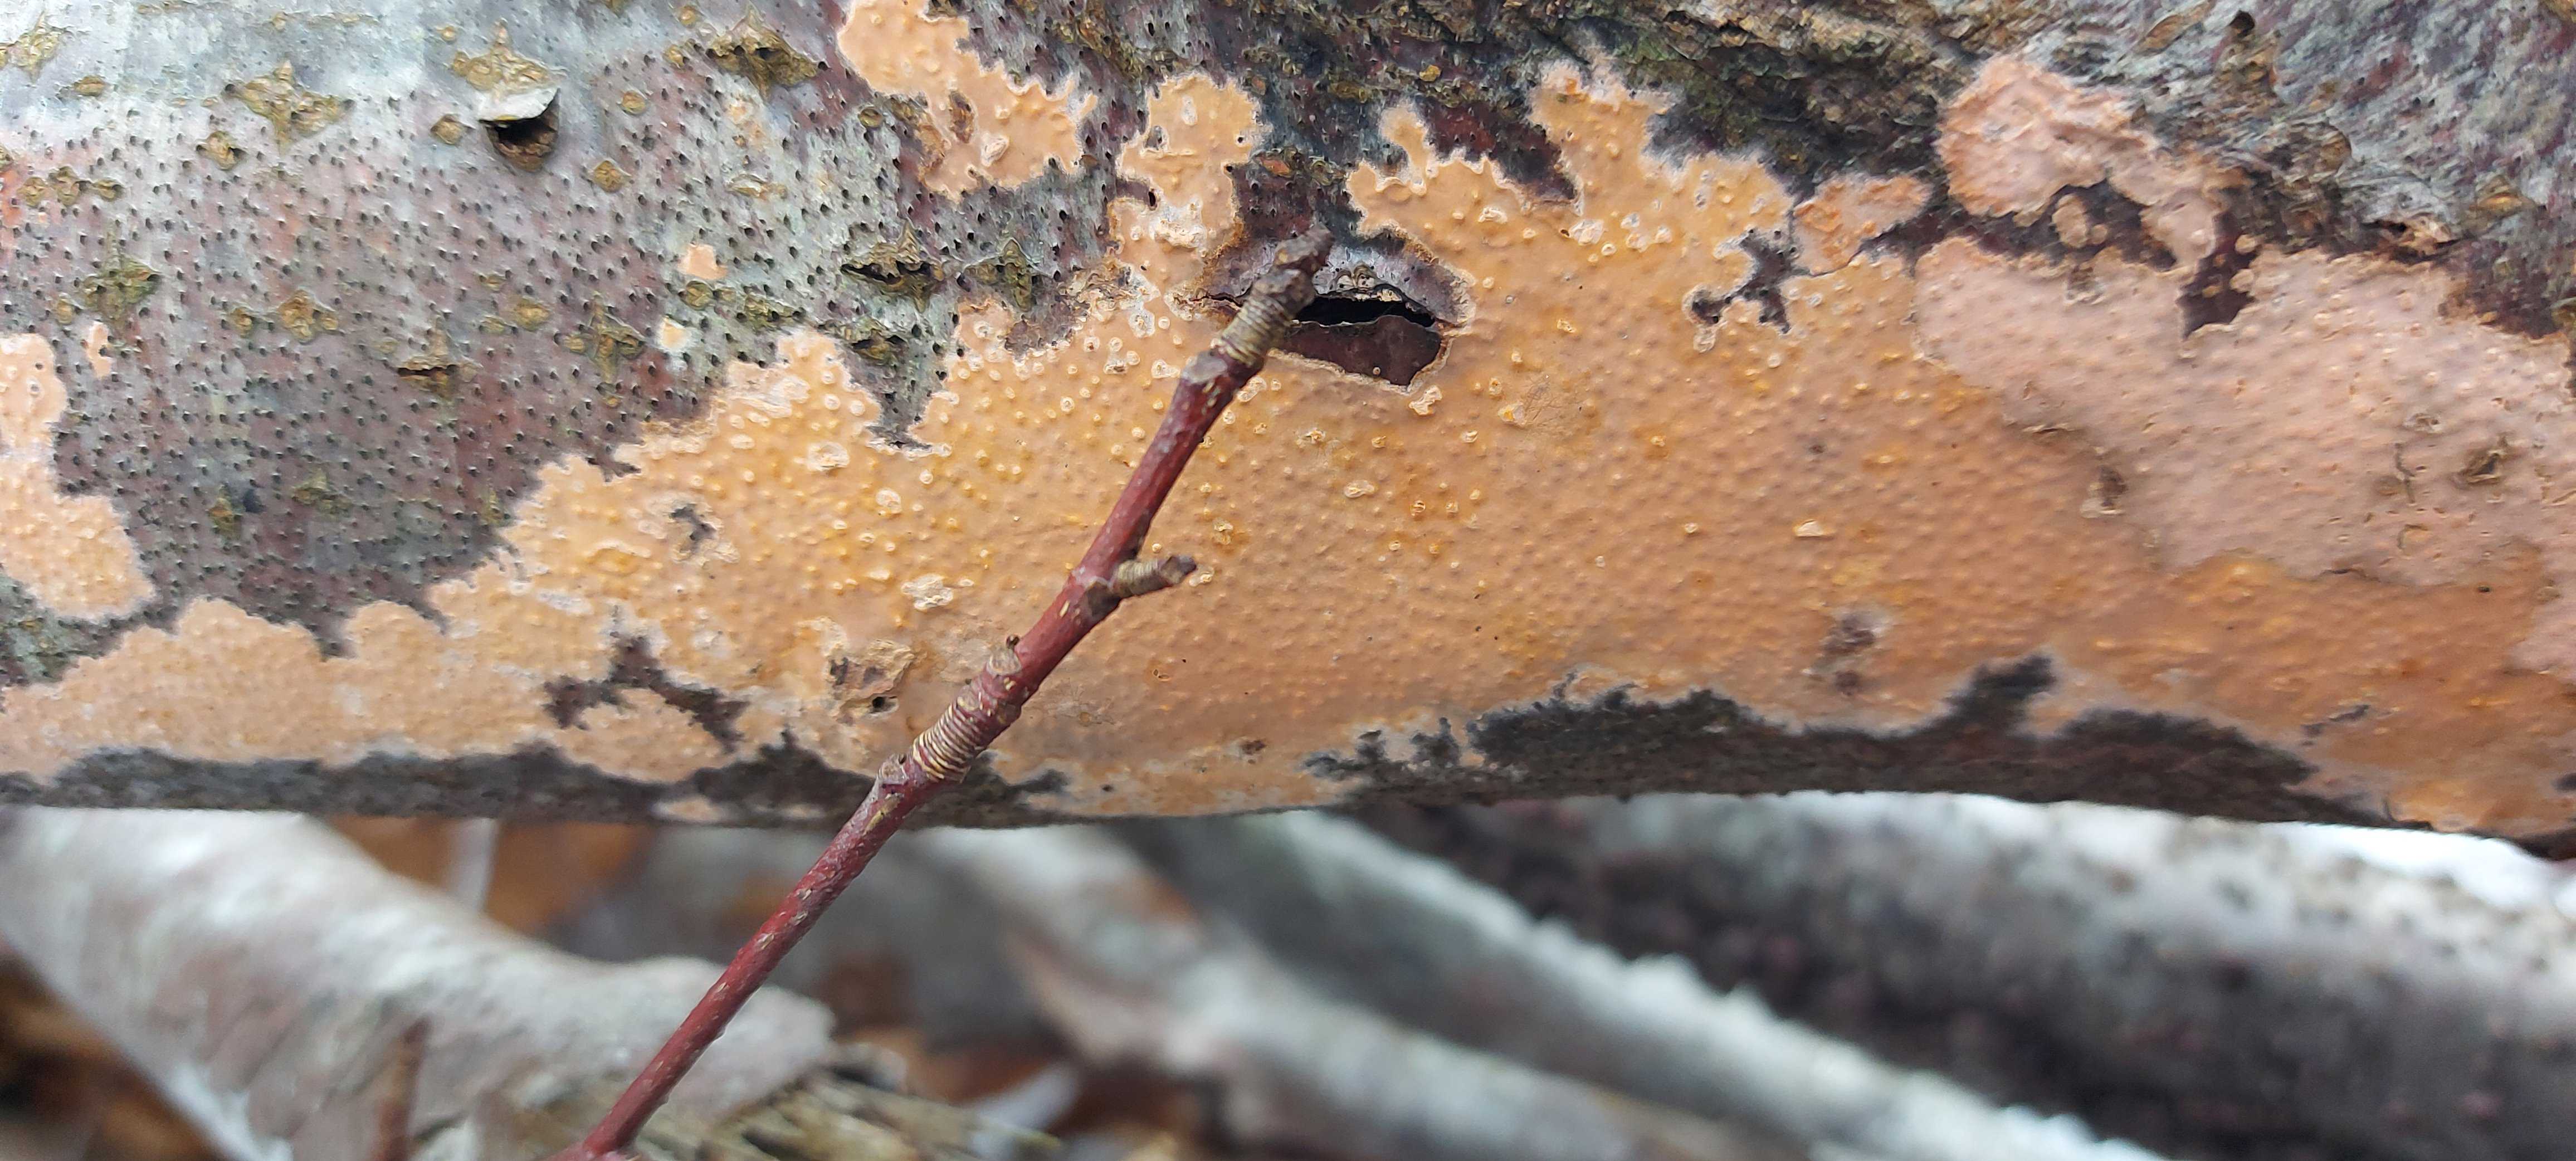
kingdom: Fungi
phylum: Basidiomycota
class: Agaricomycetes
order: Russulales
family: Peniophoraceae
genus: Peniophora
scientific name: Peniophora incarnata
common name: laksefarvet voksskind
